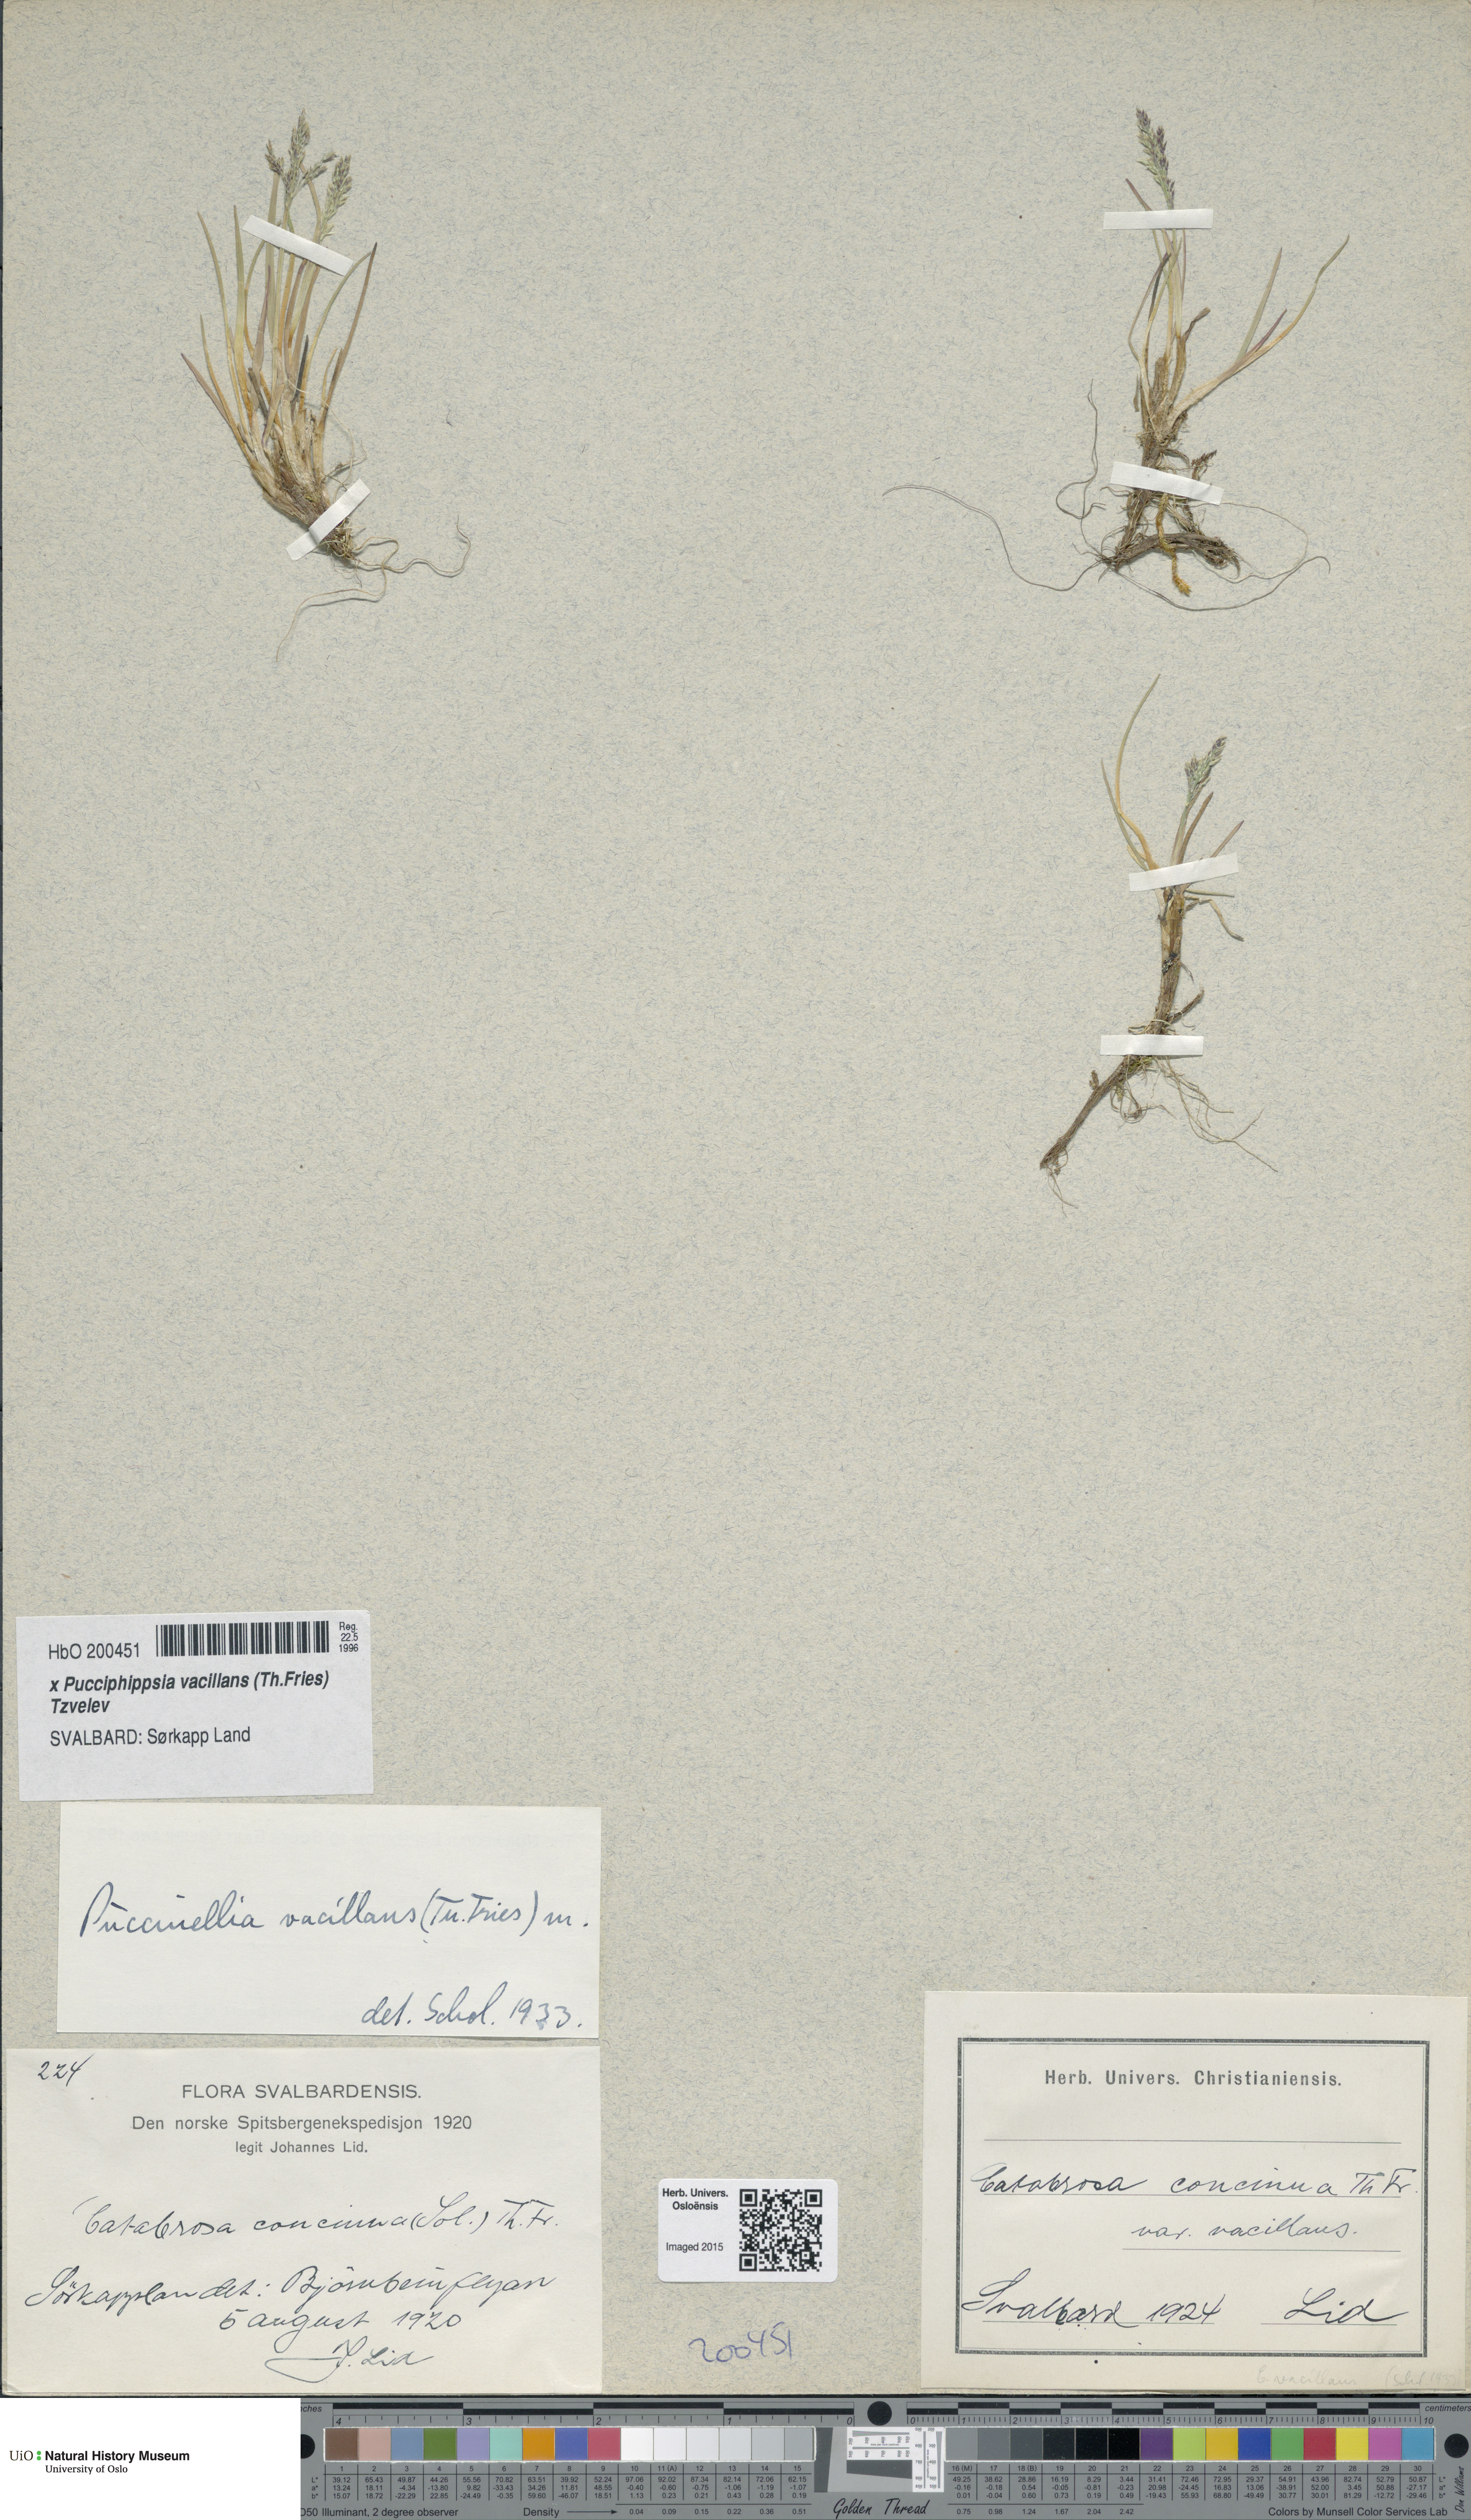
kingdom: Plantae
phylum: Tracheophyta
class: Liliopsida
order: Poales
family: Poaceae
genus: Pucciphippsia
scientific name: Pucciphippsia vacillans
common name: Svalbard grass
